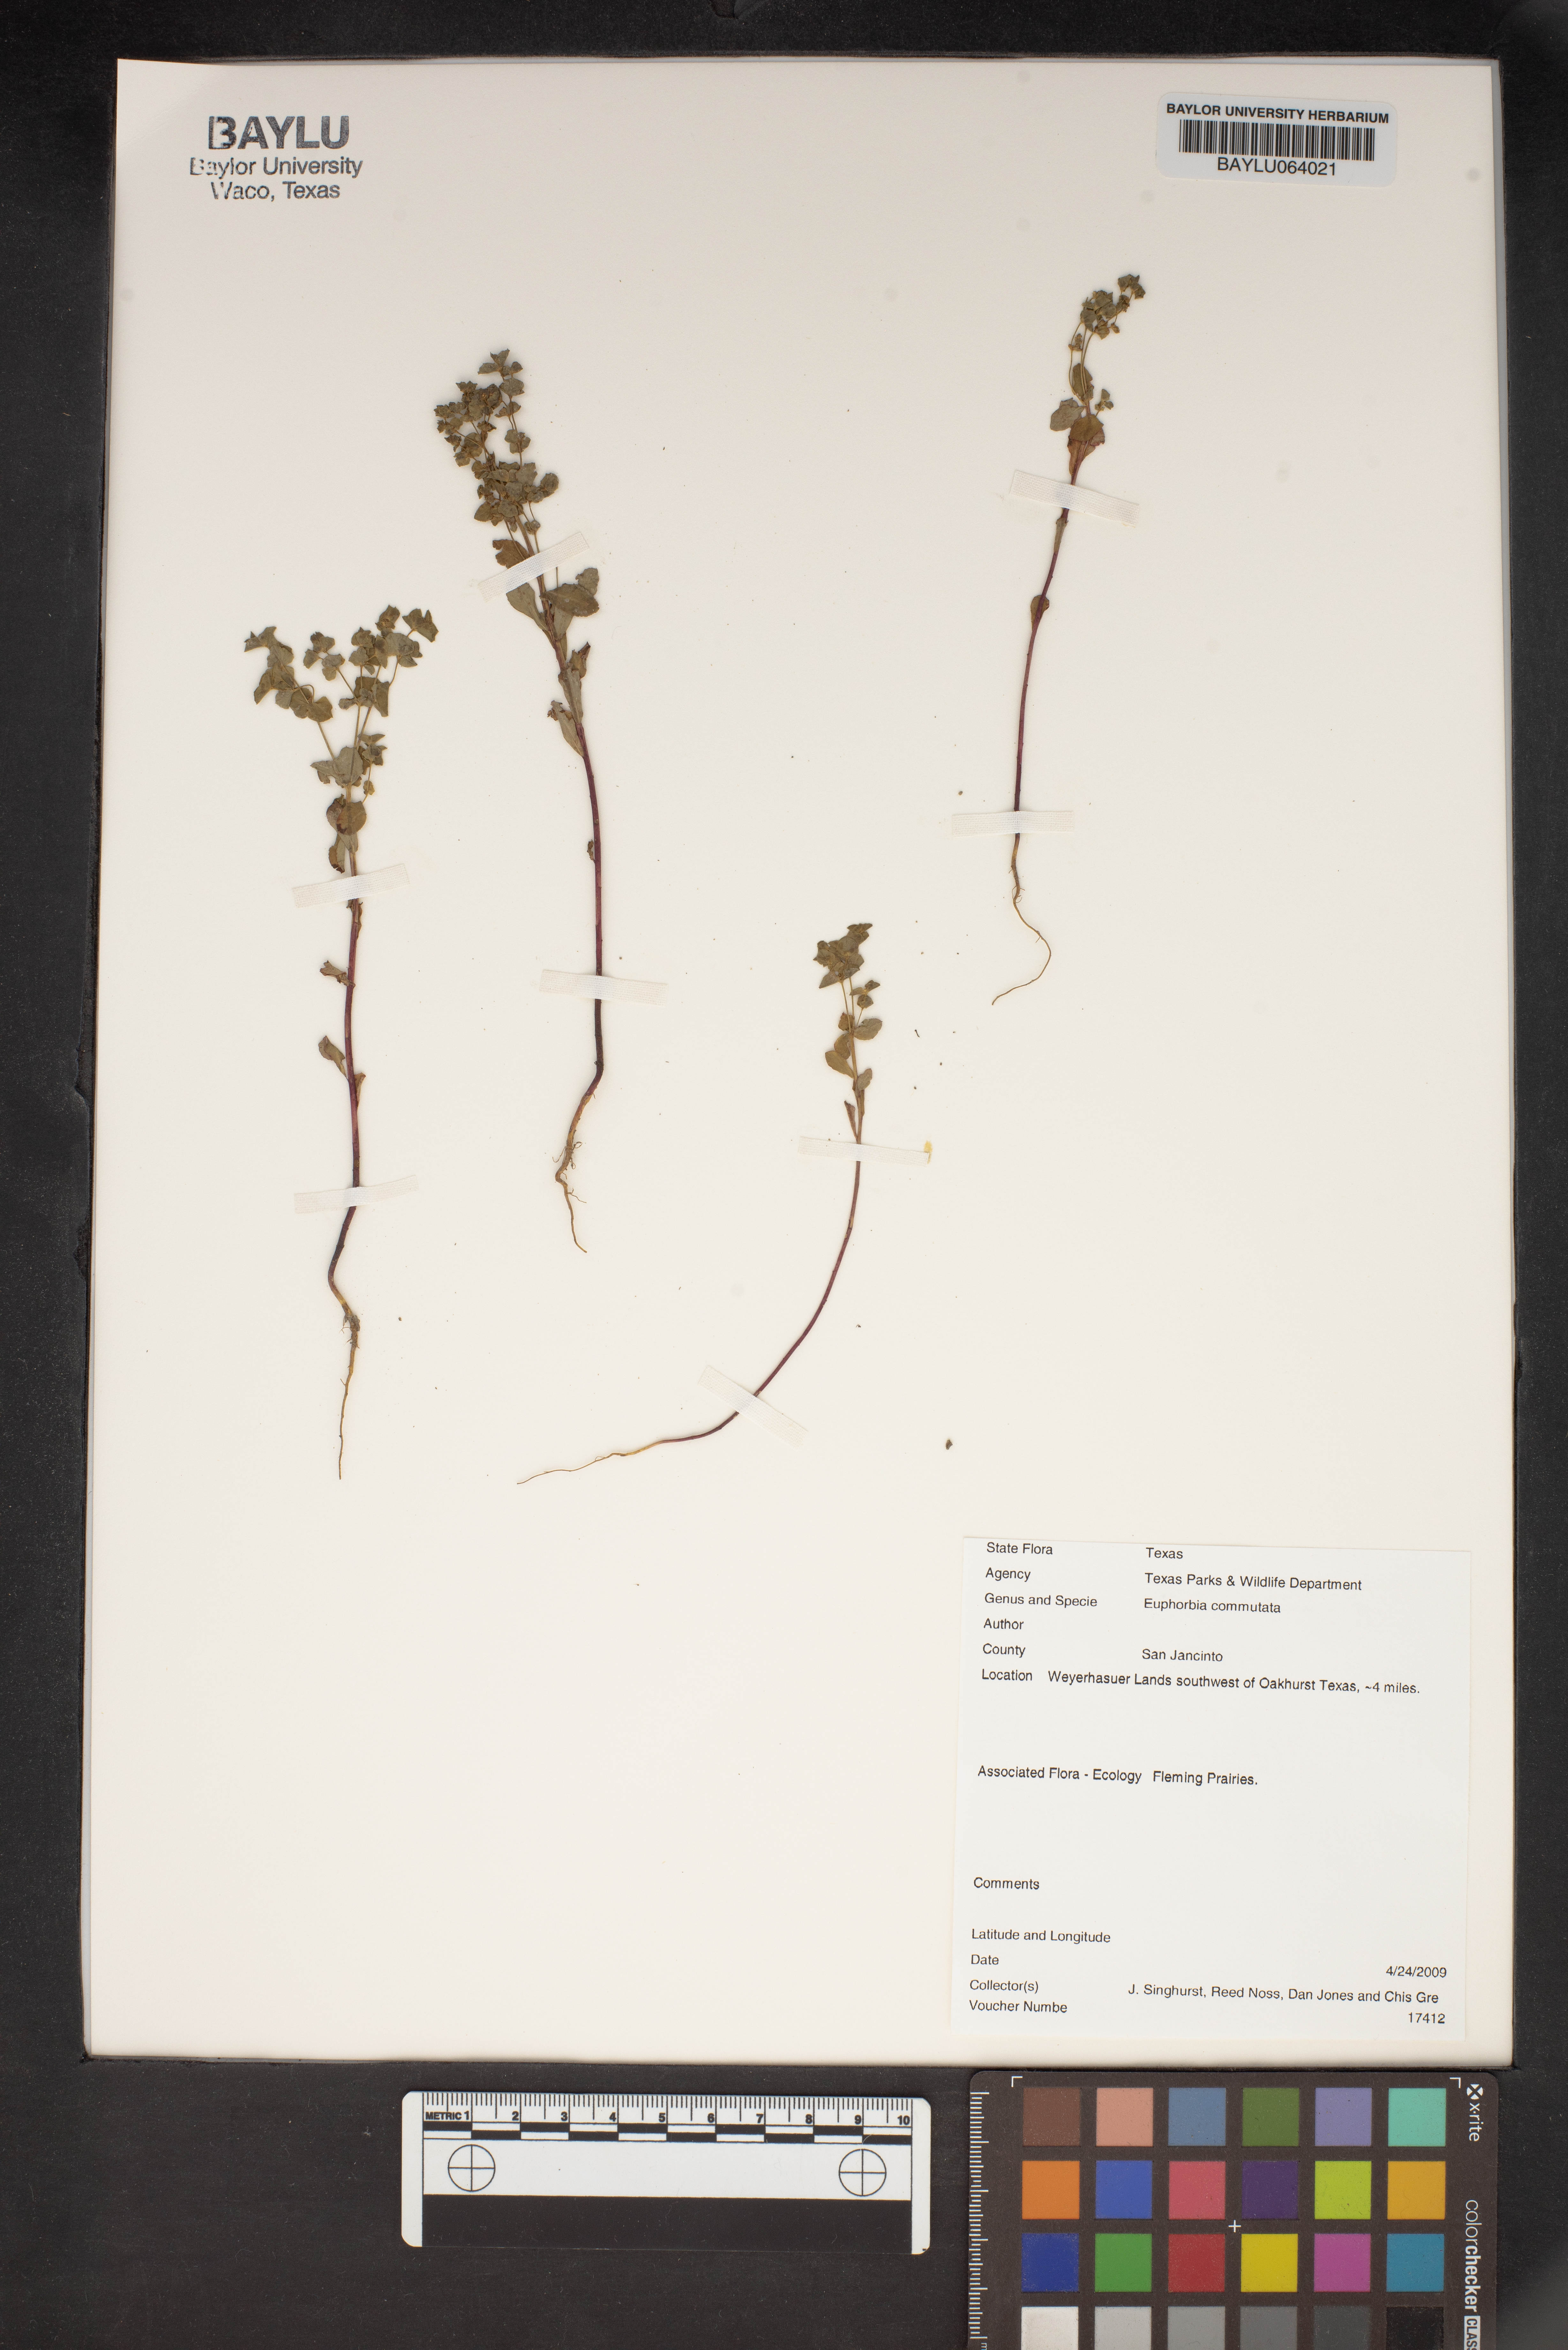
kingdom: Plantae
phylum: Tracheophyta
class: Magnoliopsida
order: Malpighiales
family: Euphorbiaceae
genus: Euphorbia
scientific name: Euphorbia commutata
